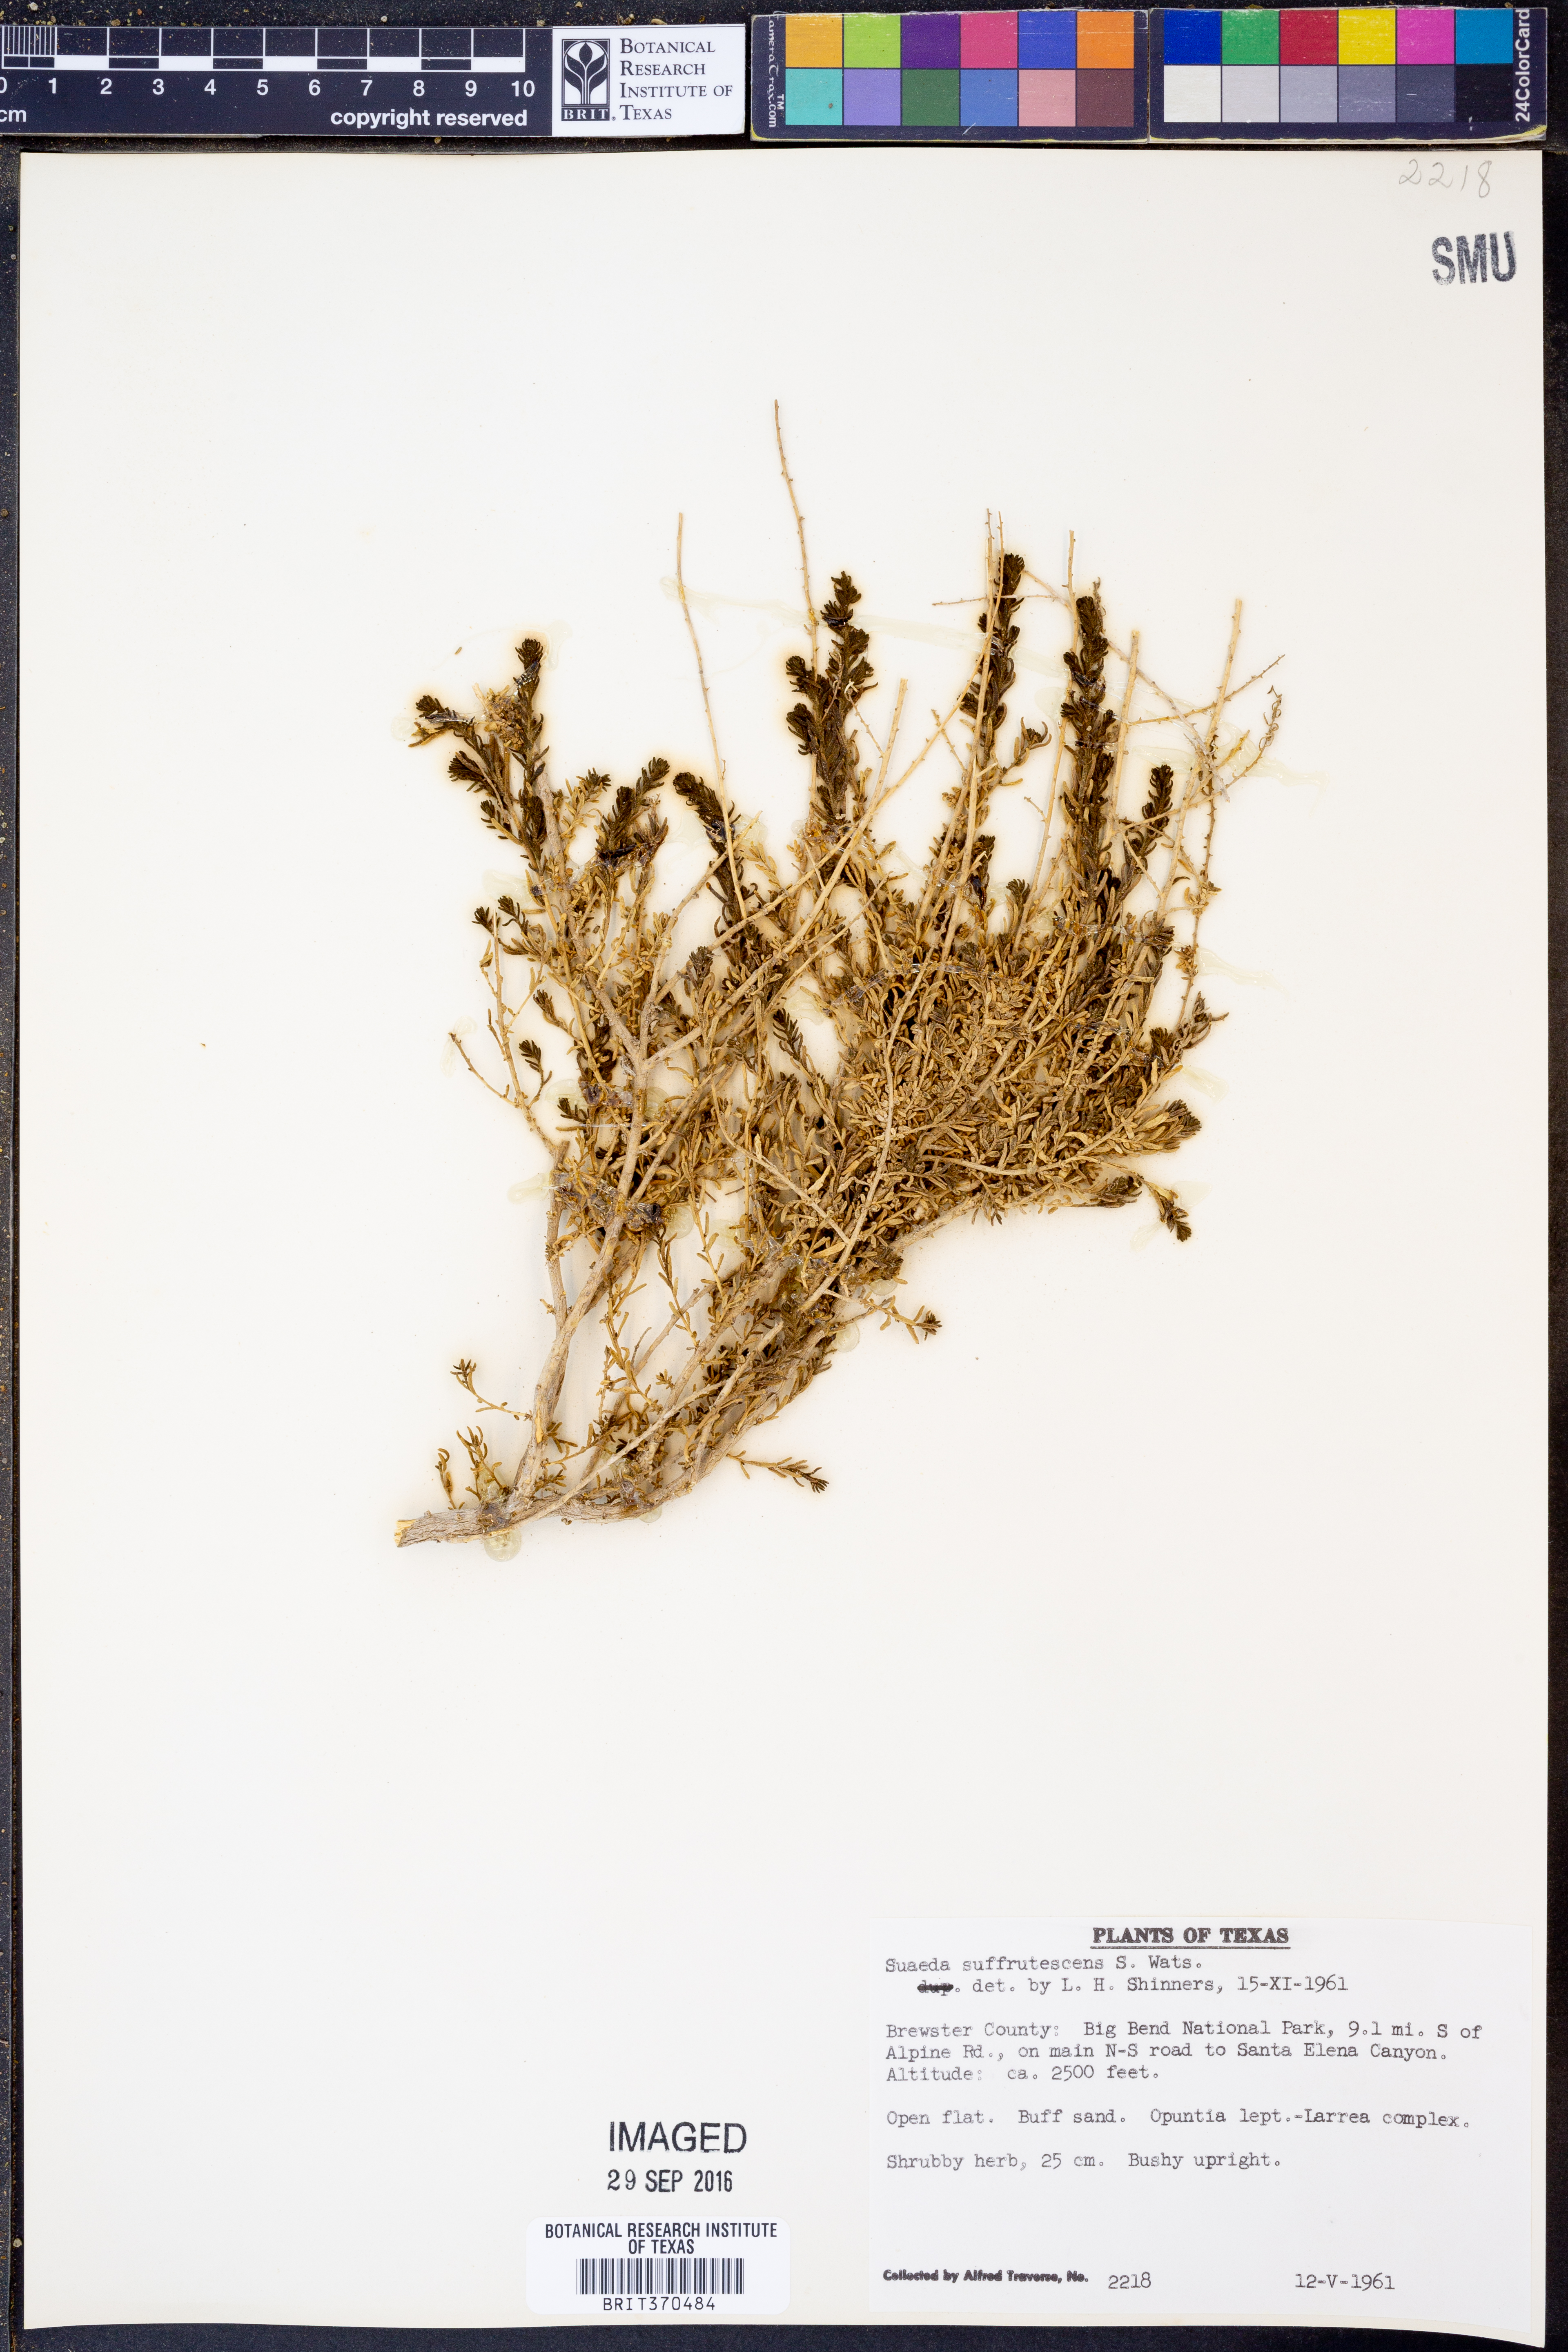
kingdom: Plantae
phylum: Tracheophyta
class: Magnoliopsida
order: Caryophyllales
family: Amaranthaceae
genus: Suaeda
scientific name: Suaeda suffrutescens
